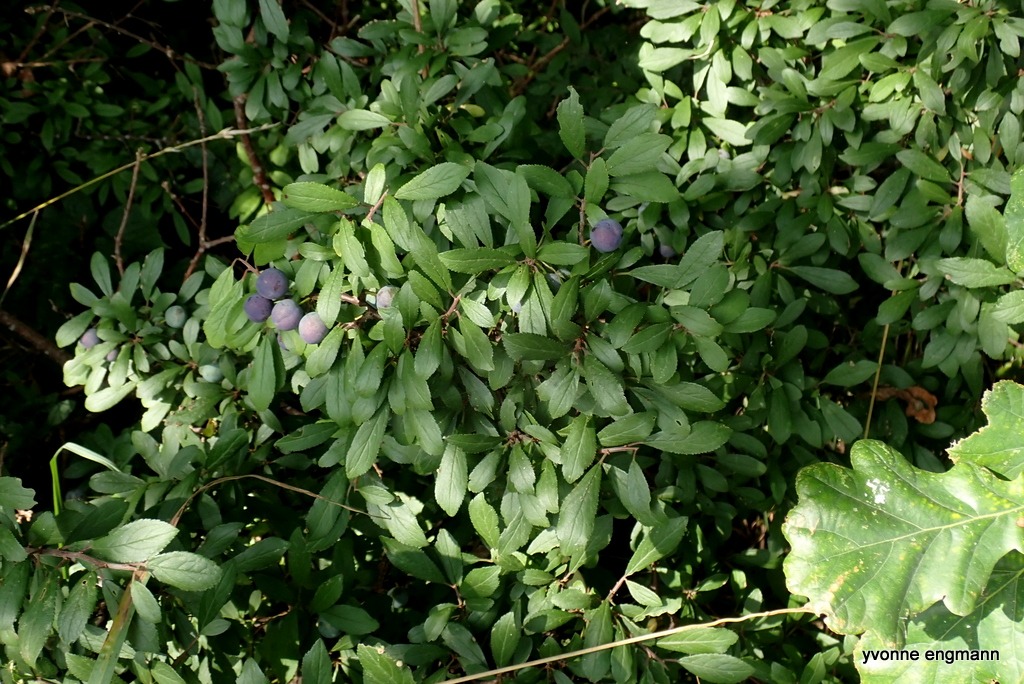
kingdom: Plantae
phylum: Tracheophyta
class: Magnoliopsida
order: Rosales
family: Rosaceae
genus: Prunus
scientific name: Prunus spinosa
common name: Slåen
